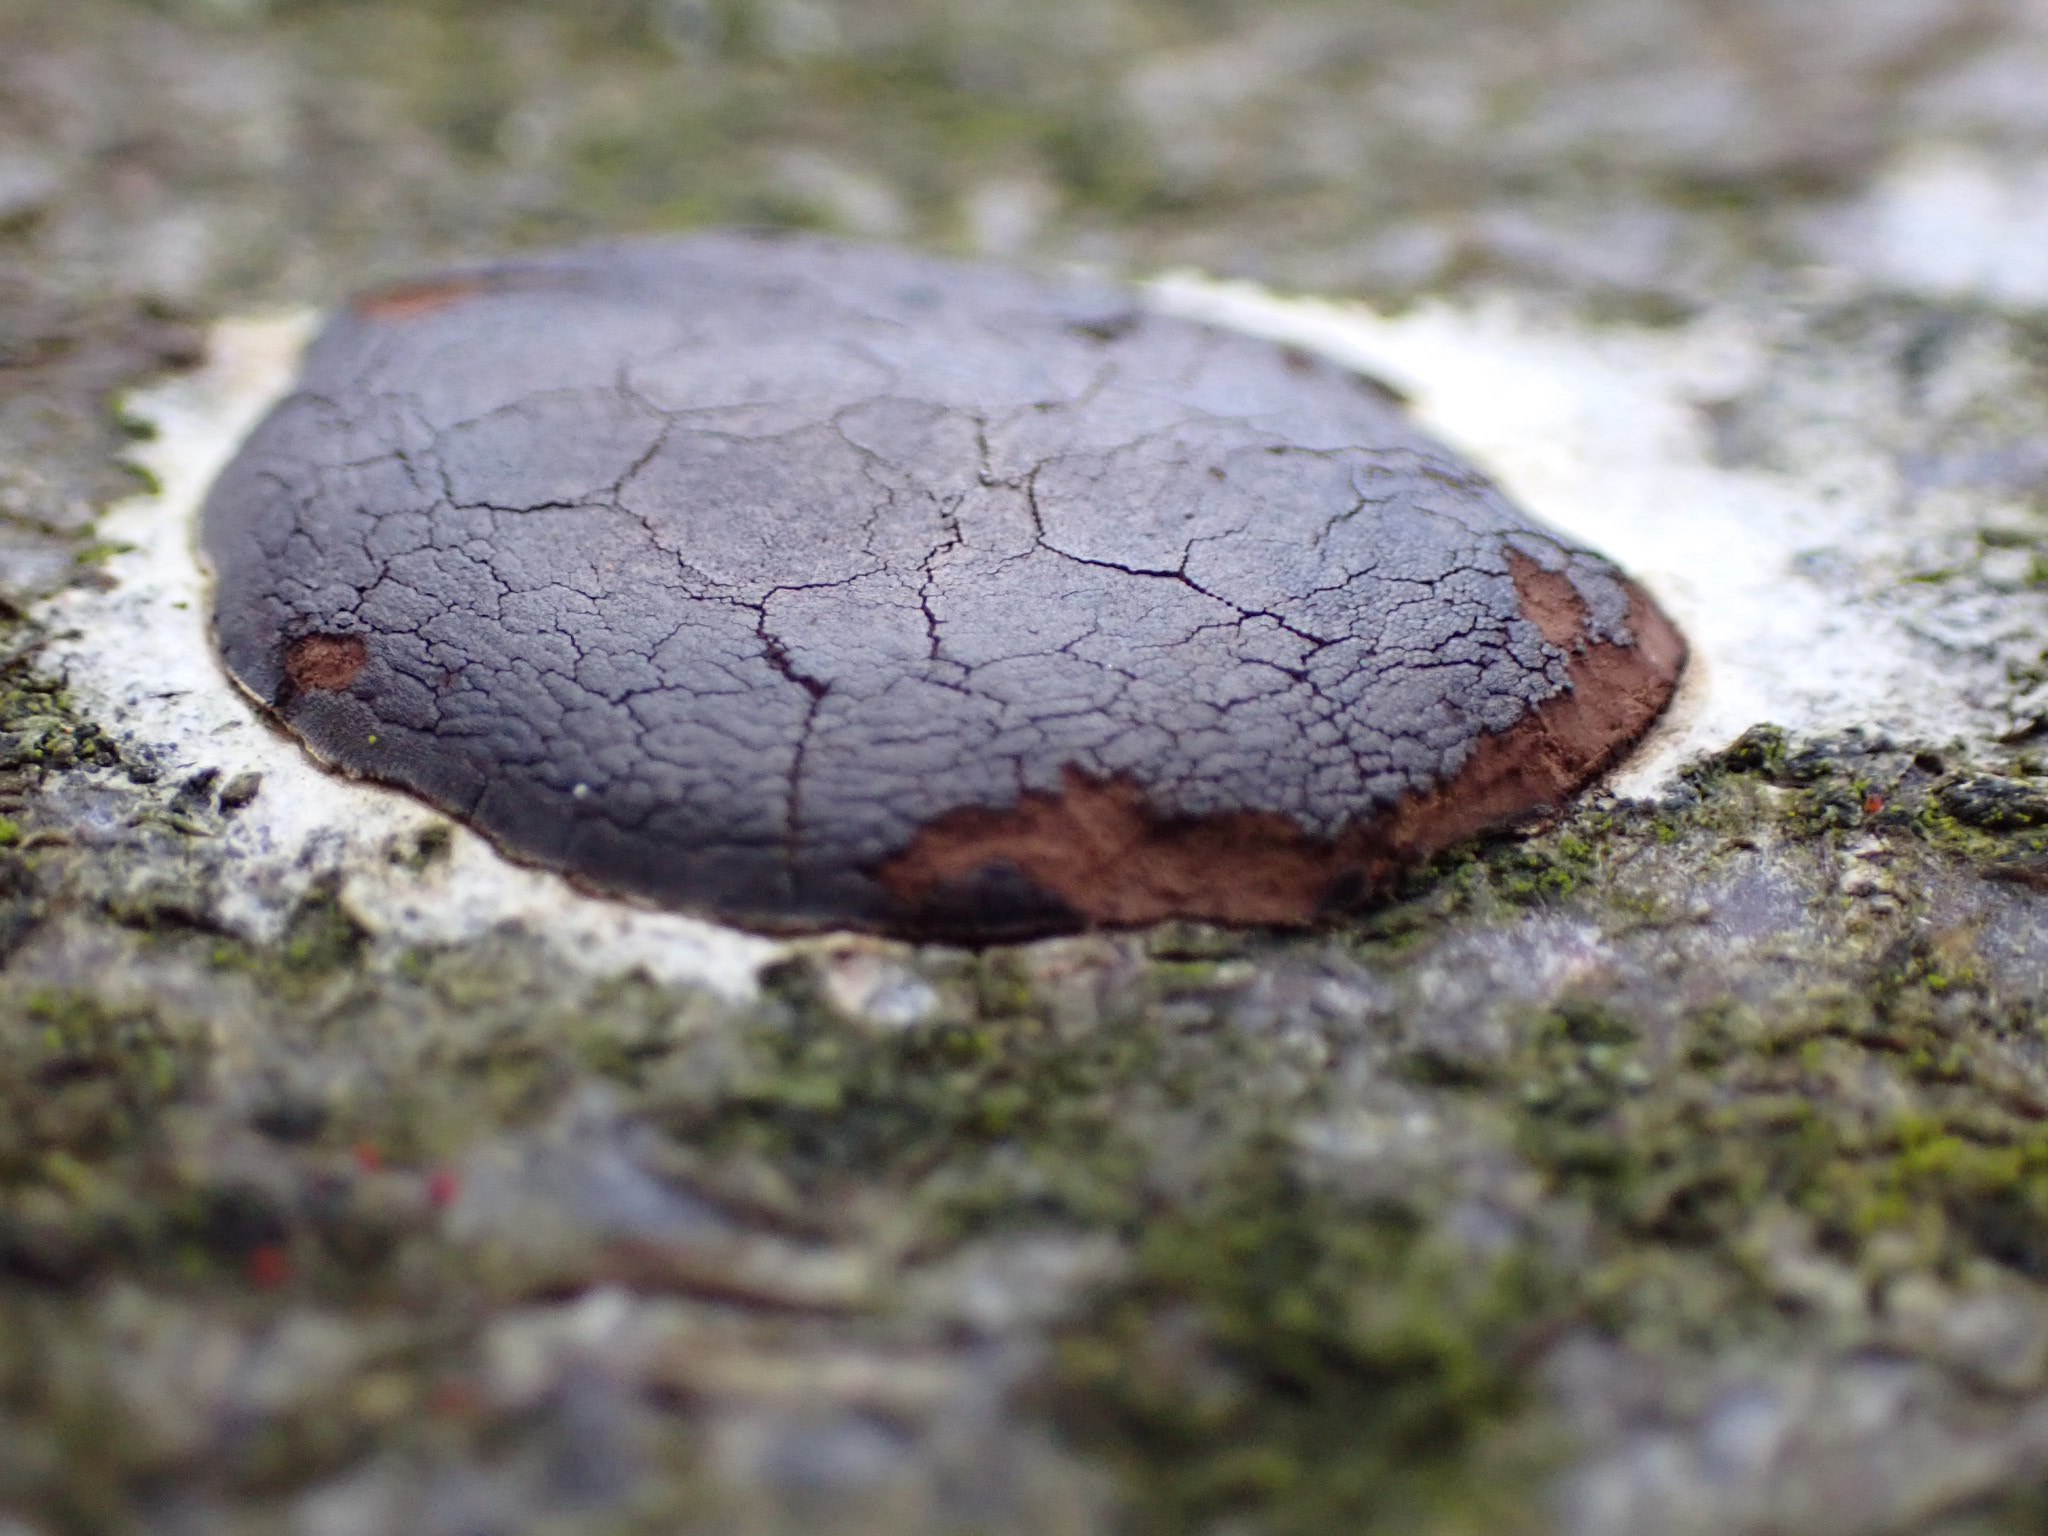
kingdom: Protozoa
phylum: Mycetozoa
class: Myxomycetes
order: Trichiales
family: Dictydiaethaliaceae
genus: Dictydiaethalium
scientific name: Dictydiaethalium plumbeum
